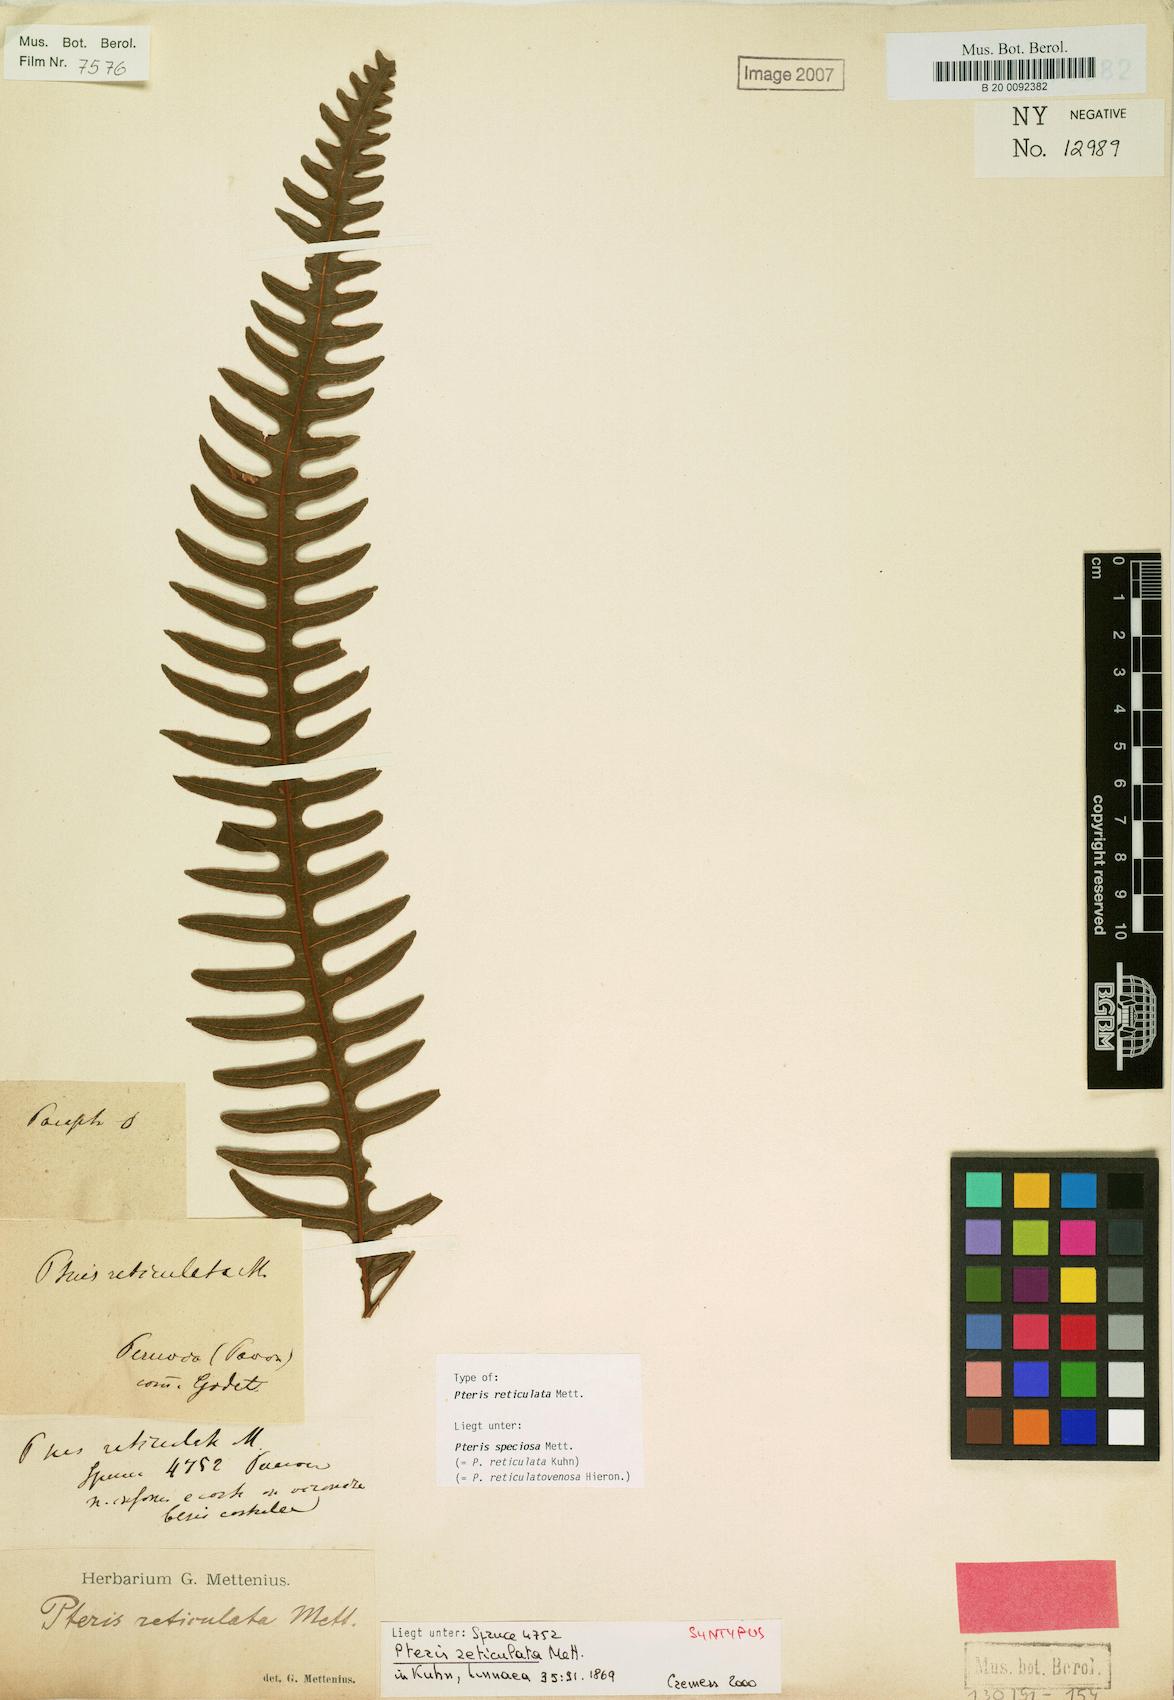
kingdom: Plantae
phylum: Tracheophyta
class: Polypodiopsida
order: Polypodiales
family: Pteridaceae
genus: Pteris
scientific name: Pteris speciosa
